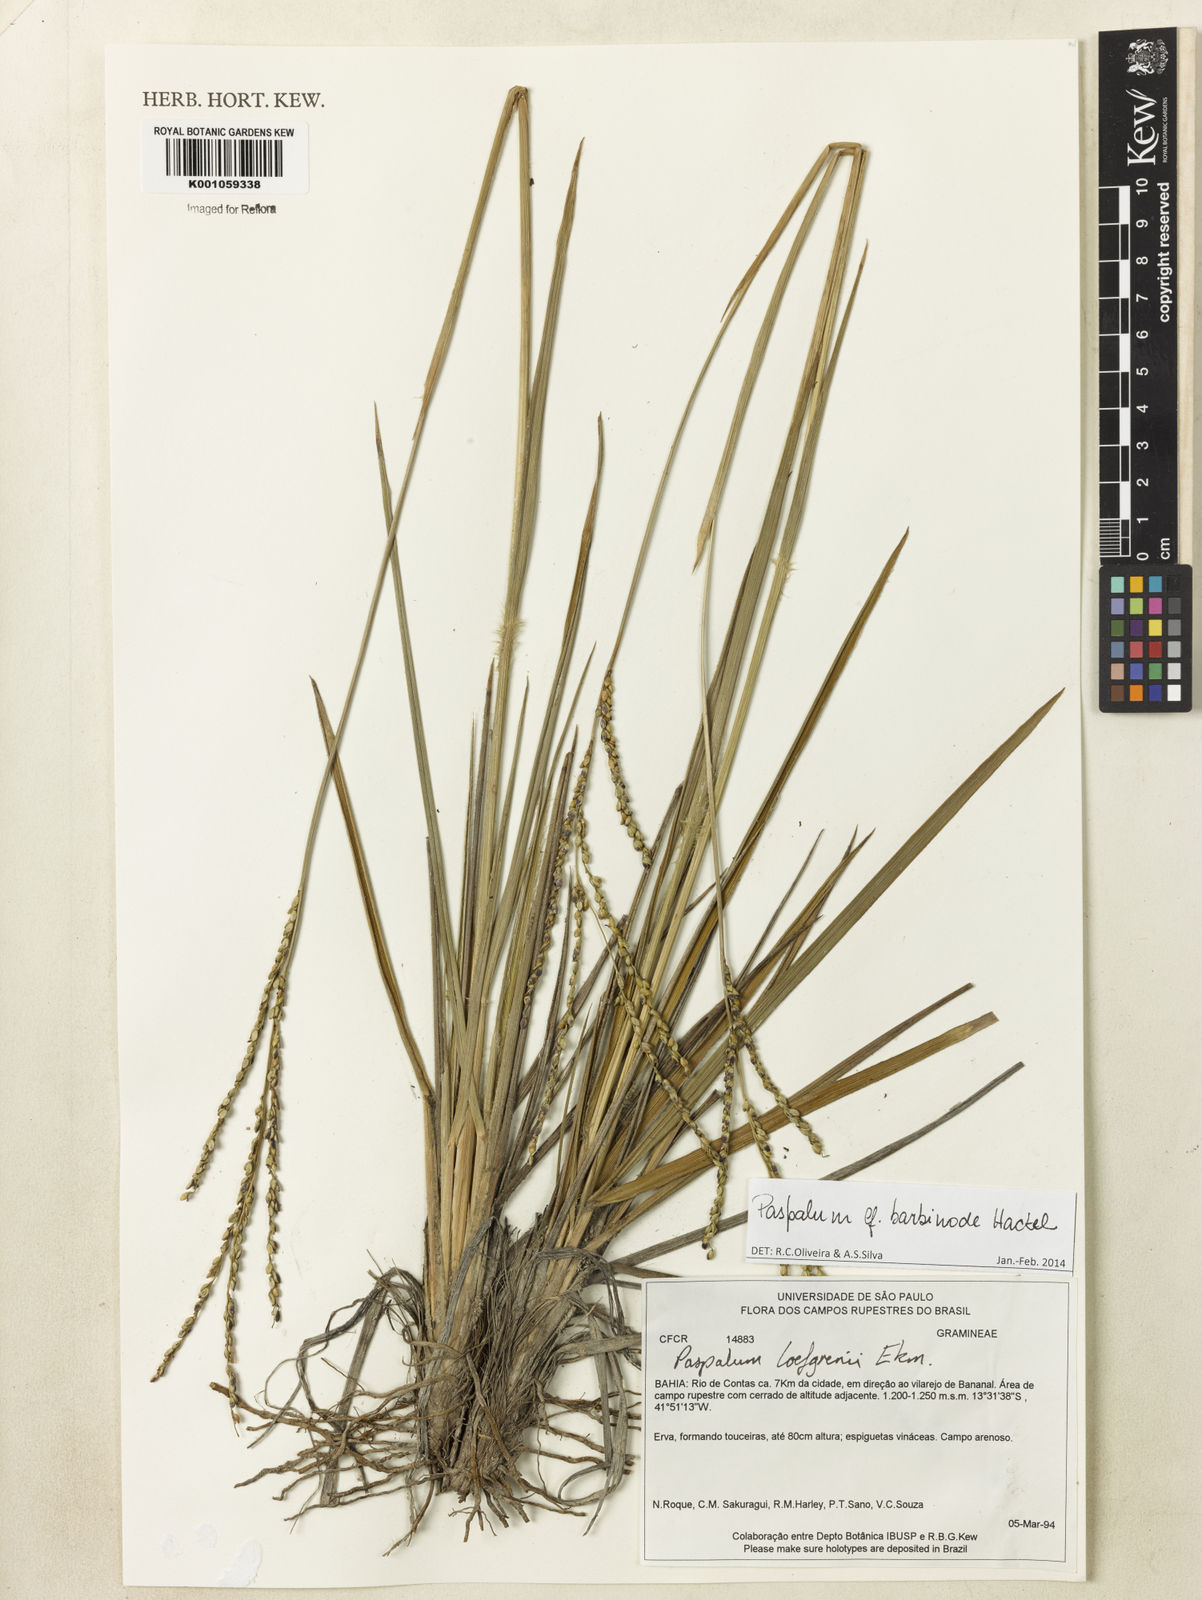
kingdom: Plantae
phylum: Tracheophyta
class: Liliopsida
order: Poales
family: Poaceae
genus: Paspalum
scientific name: Paspalum barbinode
